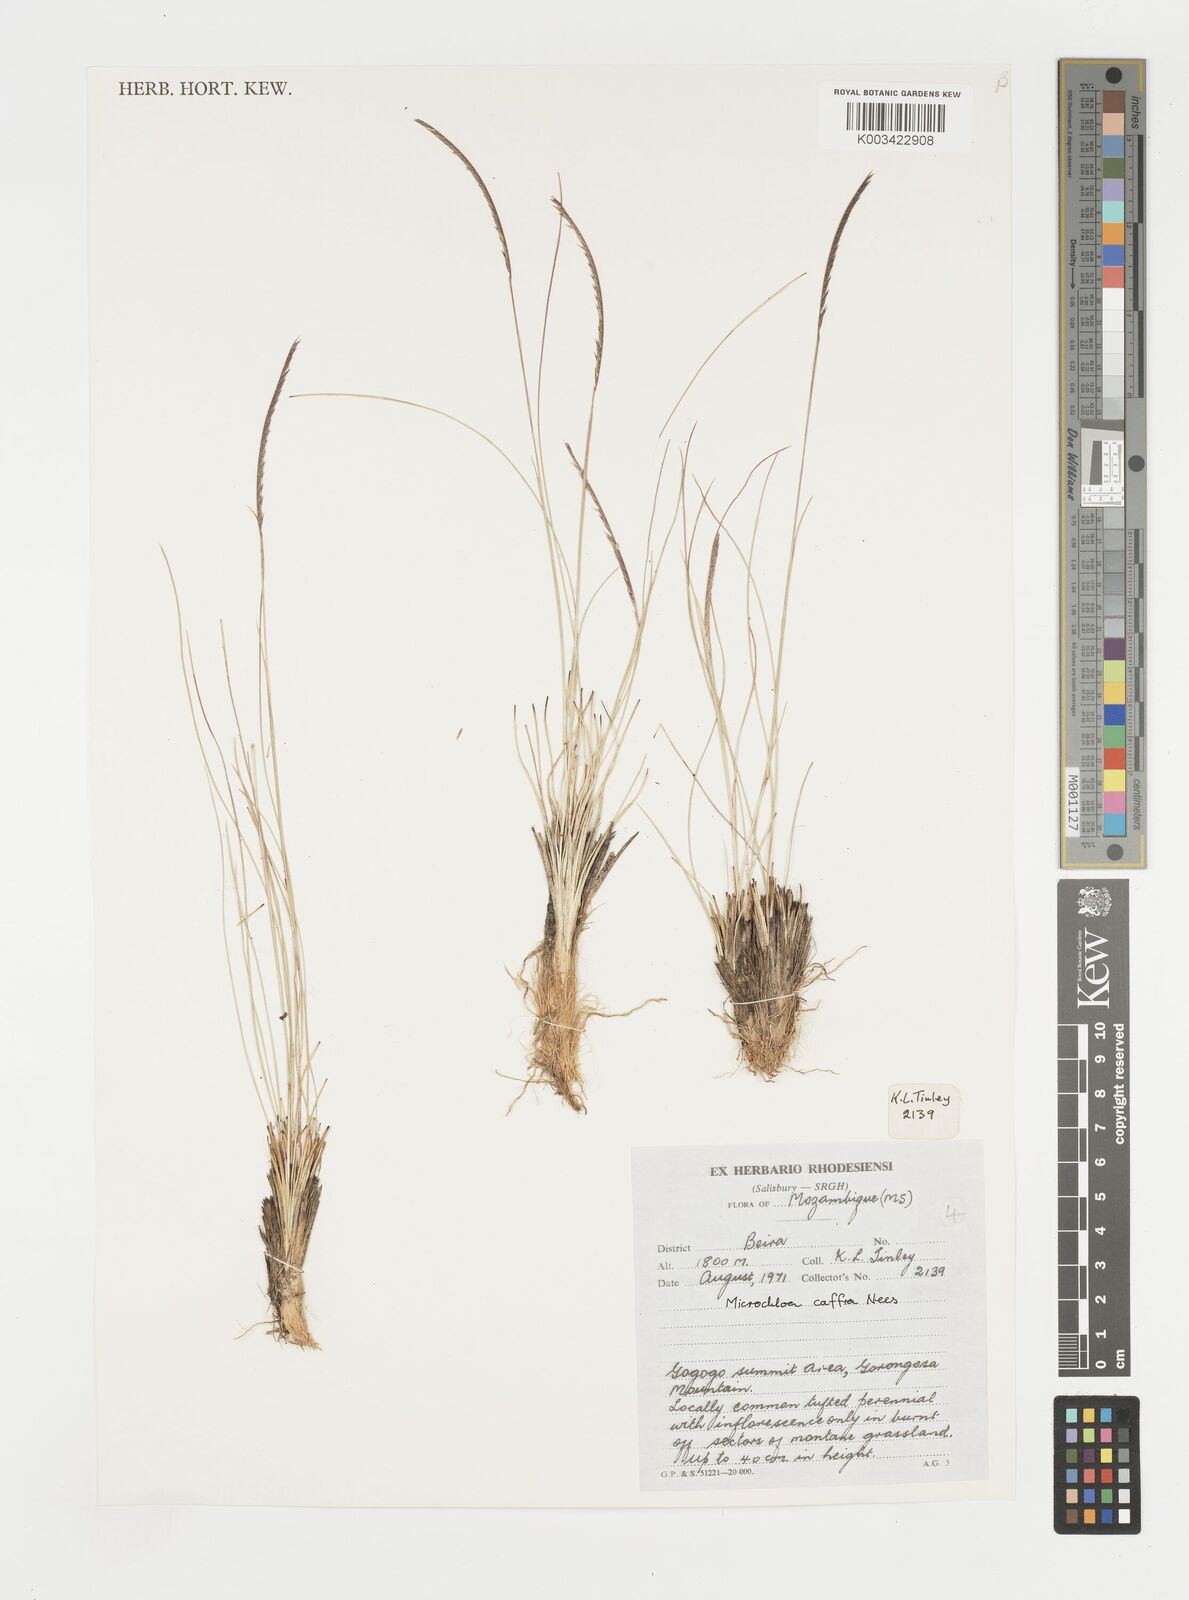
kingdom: Plantae
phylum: Tracheophyta
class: Liliopsida
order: Poales
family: Poaceae
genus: Microchloa
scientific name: Microchloa caffra
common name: Pincushion grass
